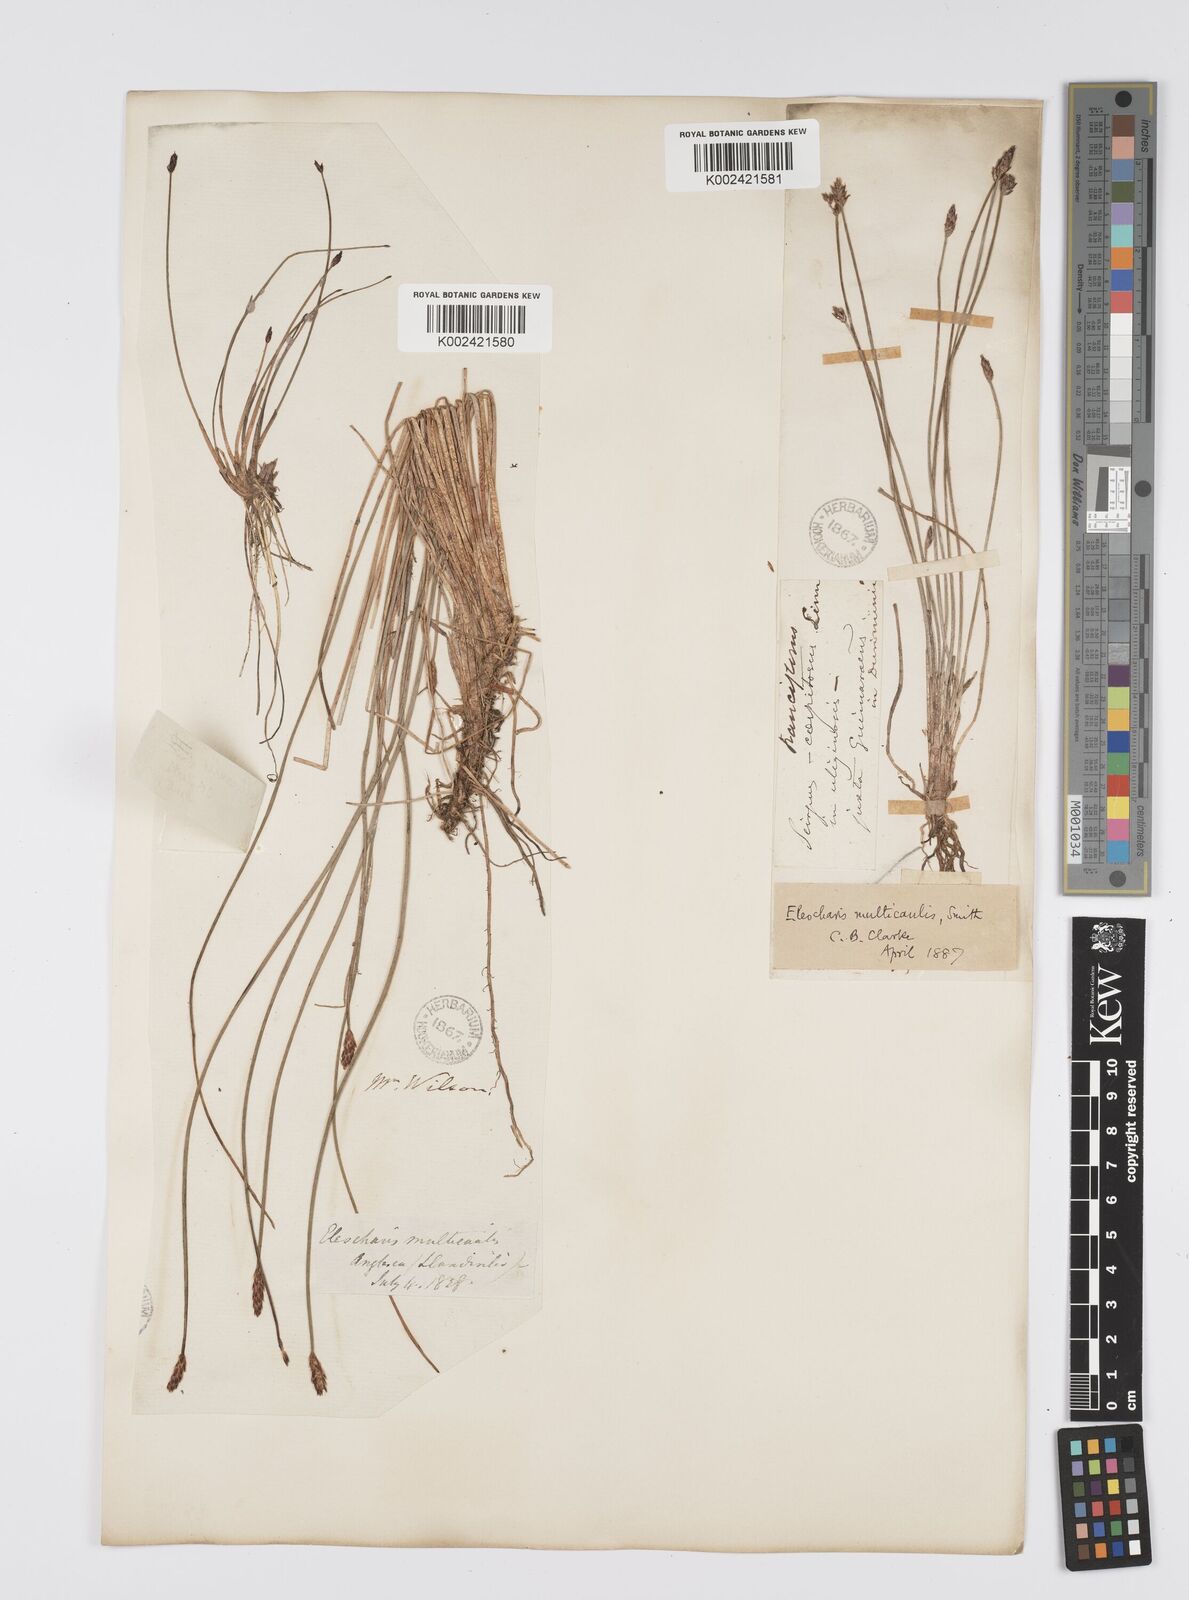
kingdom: Plantae
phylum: Tracheophyta
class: Liliopsida
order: Poales
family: Cyperaceae
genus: Eleocharis
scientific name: Eleocharis multicaulis
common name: Many-stalked spike-rush
